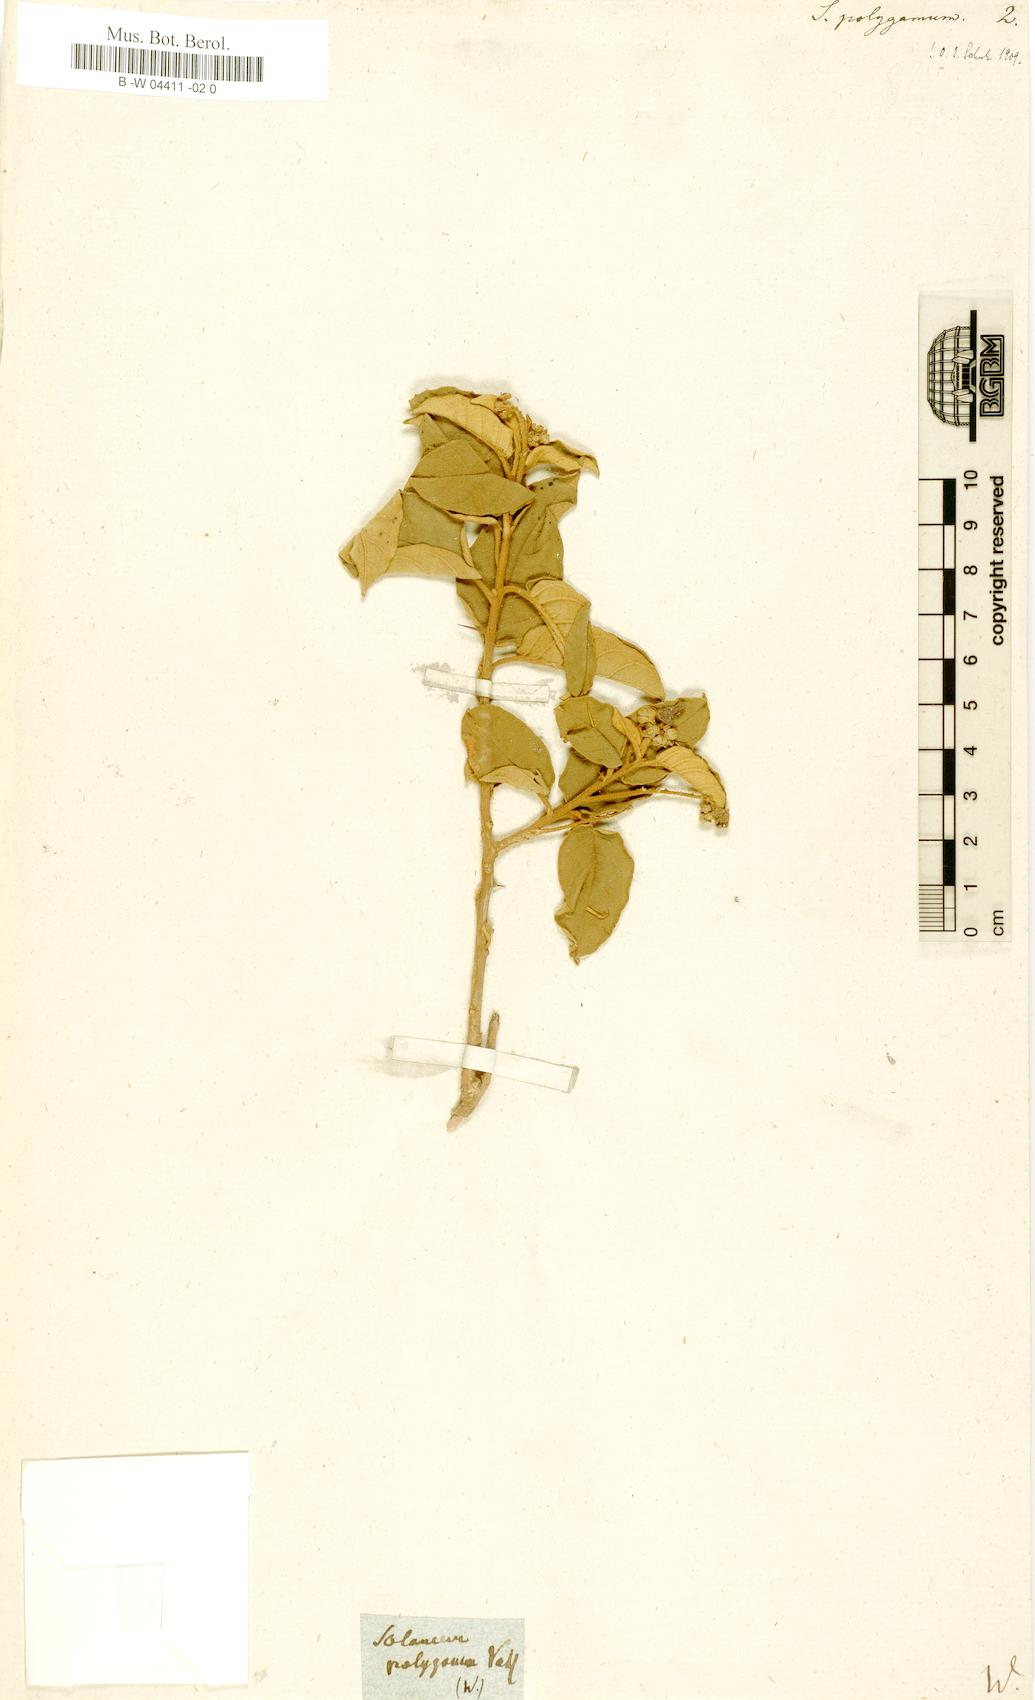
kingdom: Plantae
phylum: Tracheophyta
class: Magnoliopsida
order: Solanales
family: Solanaceae
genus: Solanum
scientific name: Solanum polygamum
